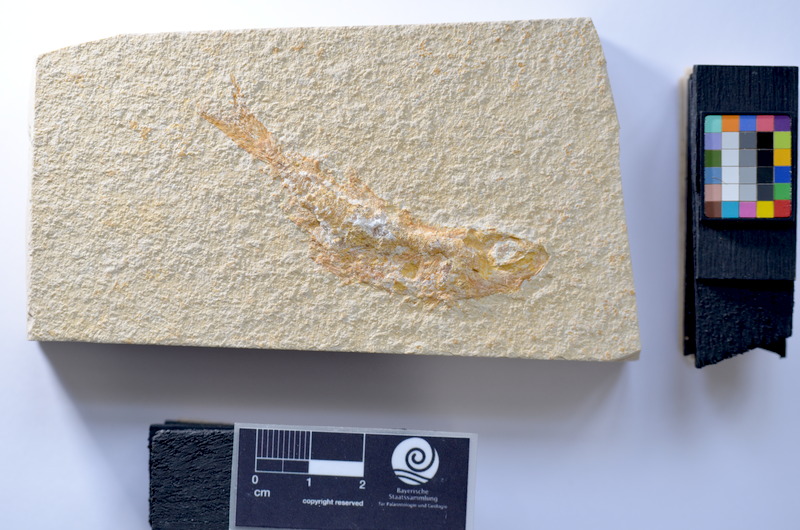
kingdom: Animalia
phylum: Chordata
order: Salmoniformes
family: Orthogonikleithridae
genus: Leptolepides
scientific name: Leptolepides
